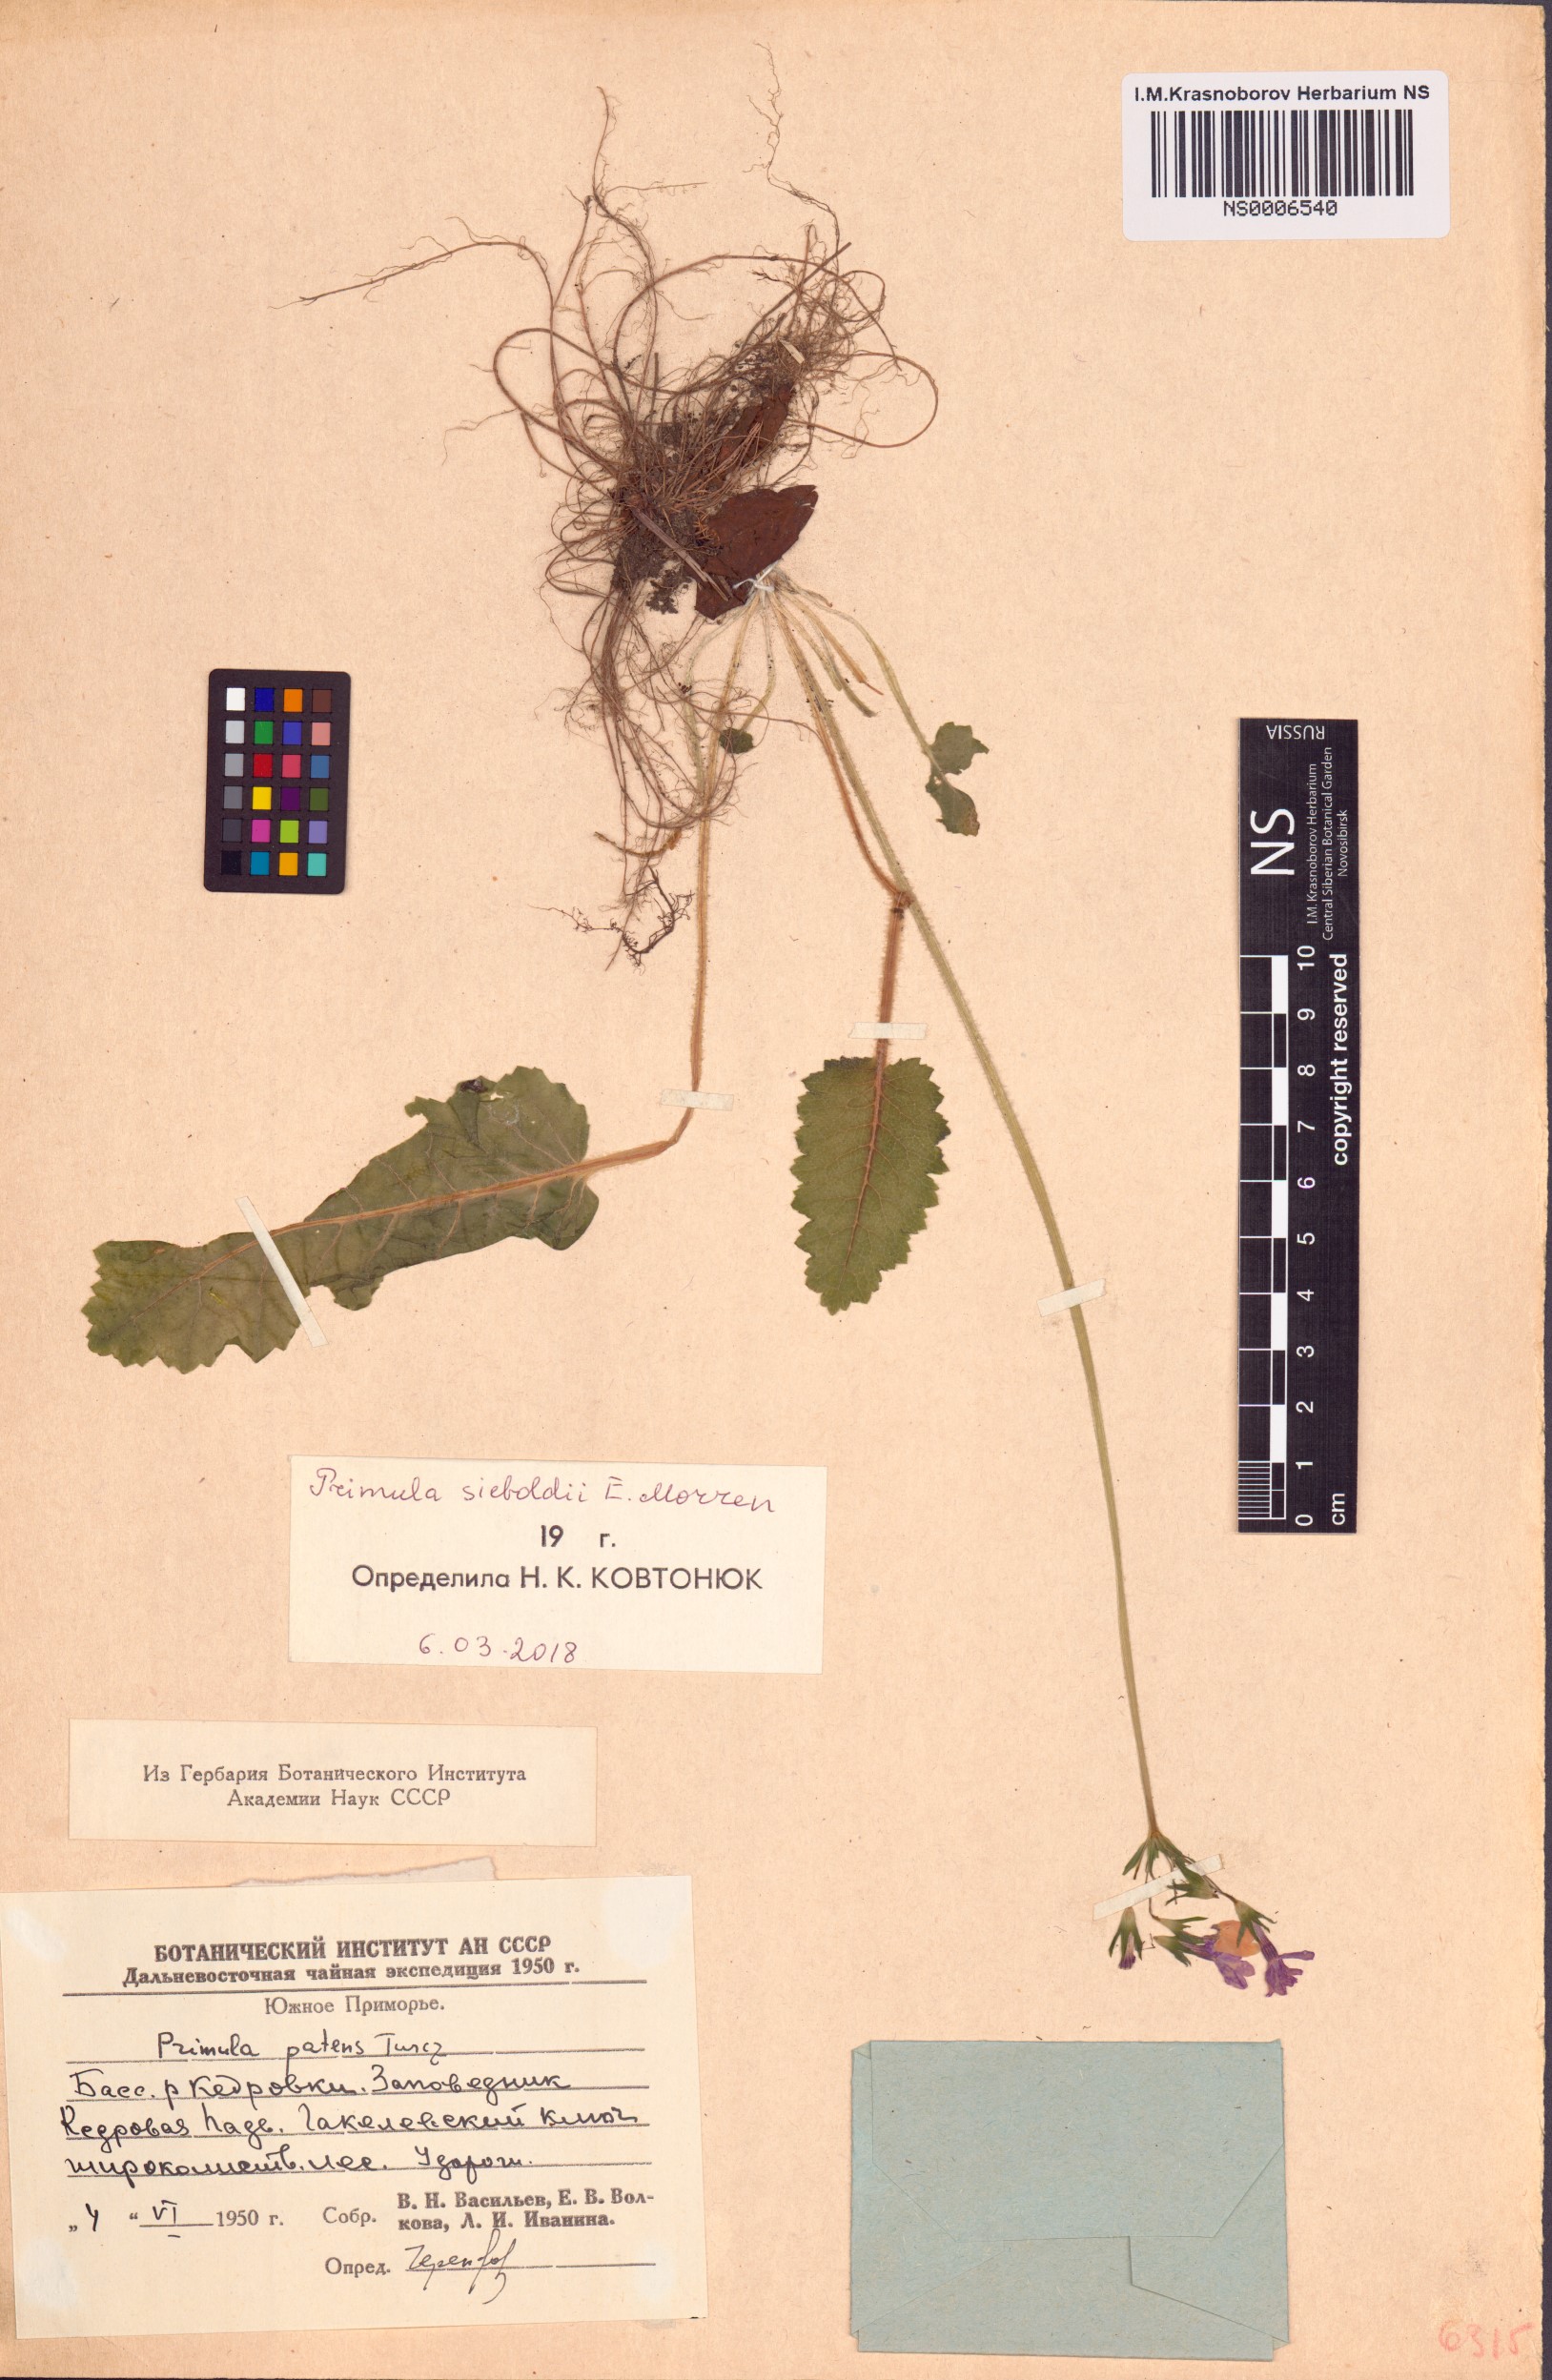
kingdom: Plantae
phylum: Tracheophyta
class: Magnoliopsida
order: Ericales
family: Primulaceae
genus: Primula
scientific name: Primula sieboldii
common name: Japanese primrose
